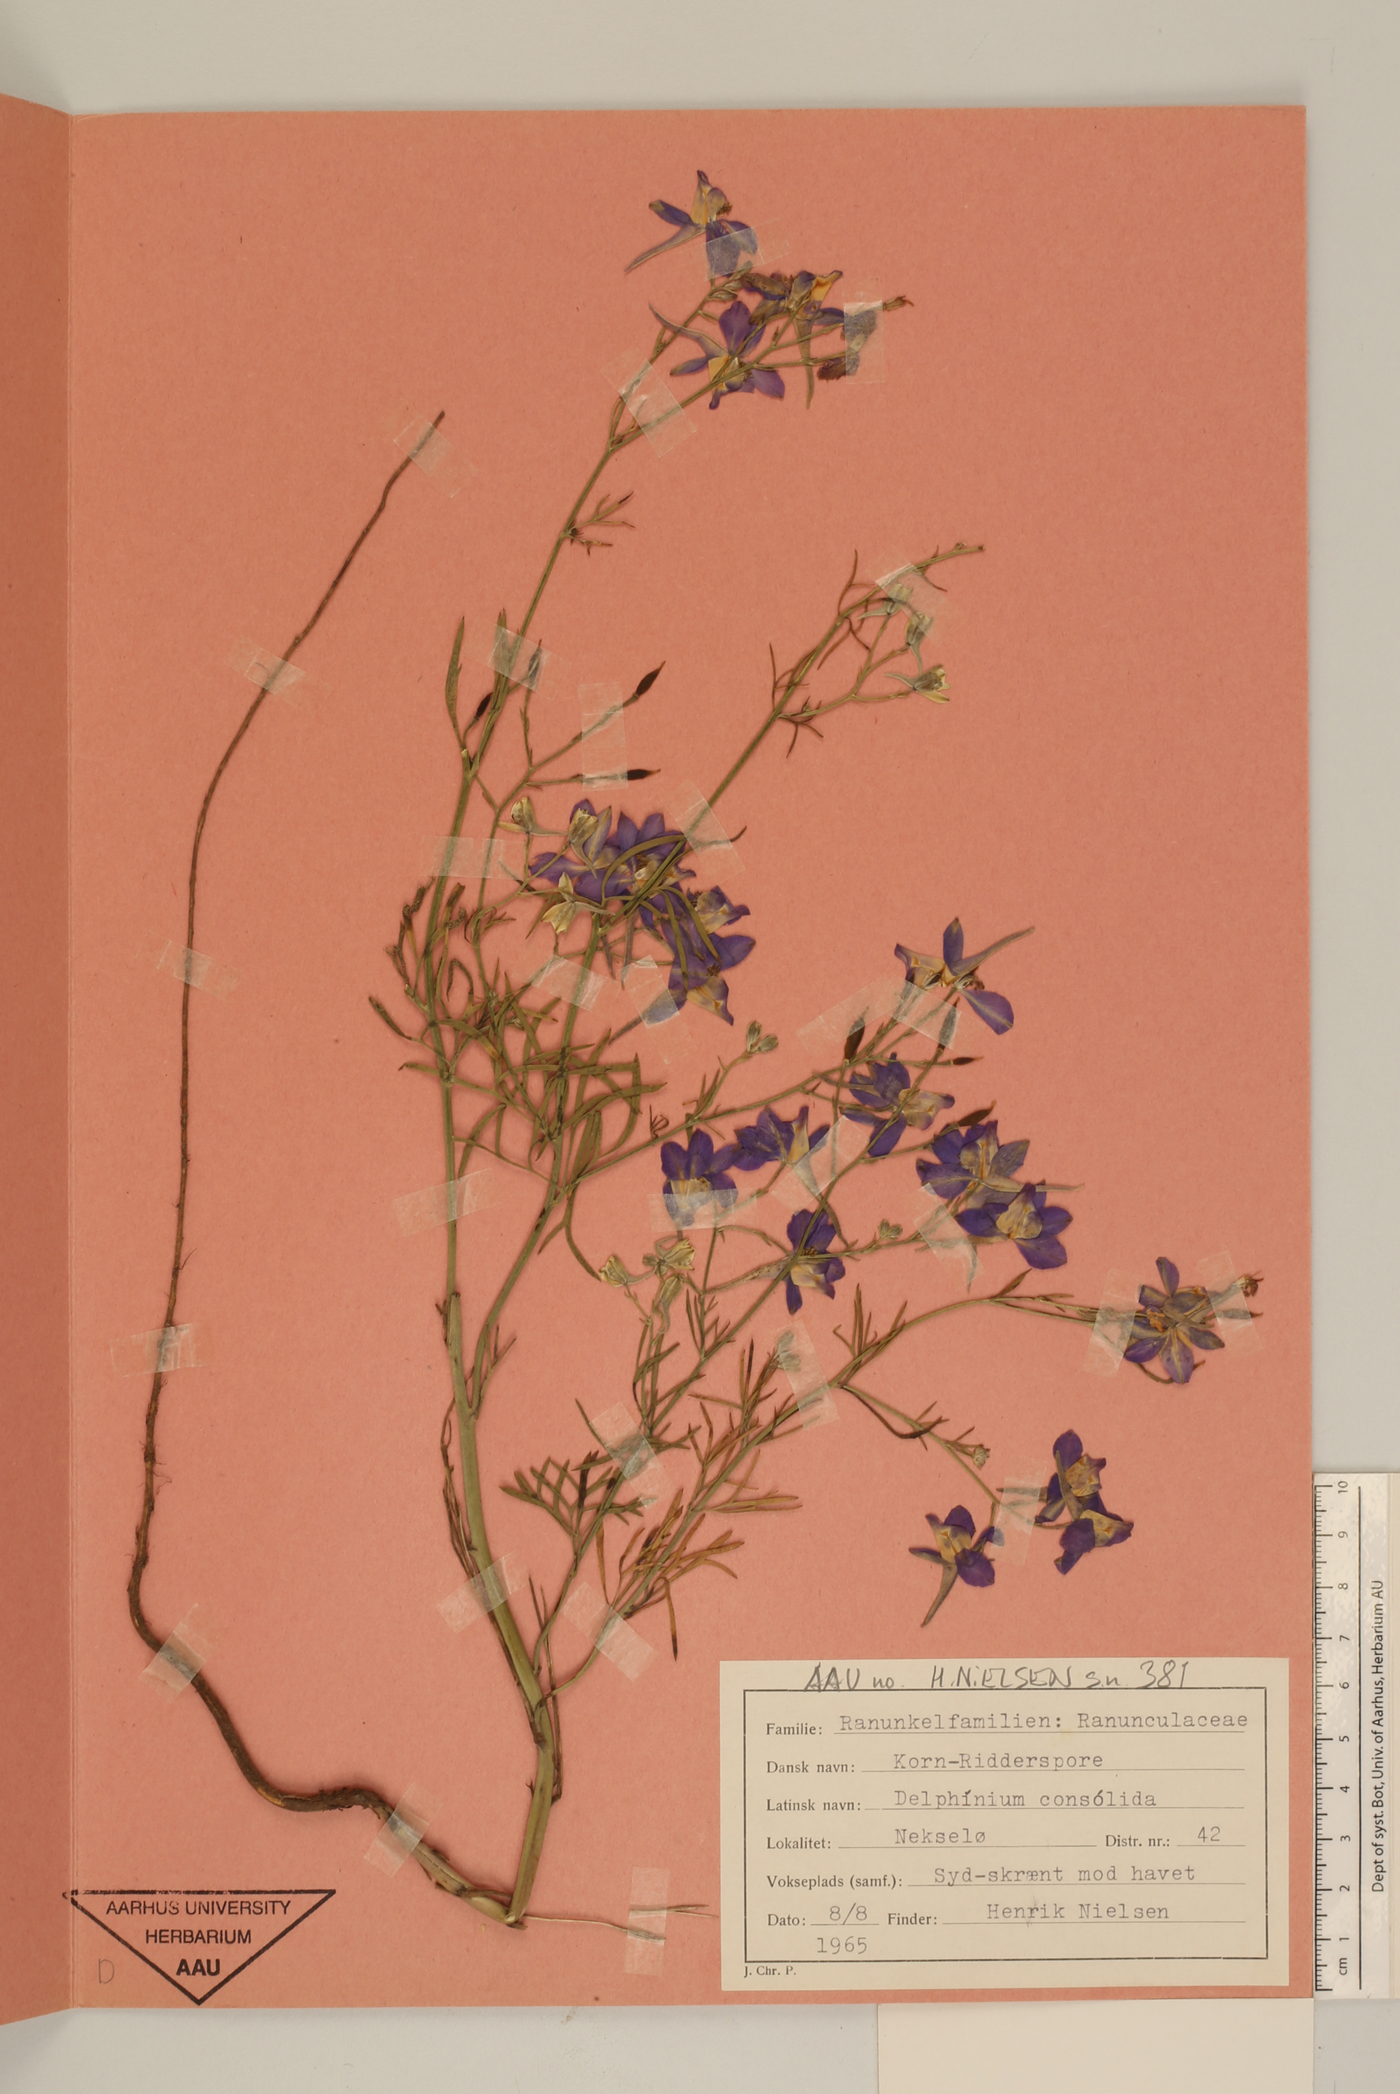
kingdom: Plantae
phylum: Tracheophyta
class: Magnoliopsida
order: Ranunculales
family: Ranunculaceae
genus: Delphinium
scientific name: Delphinium consolida
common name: Branching larkspur
